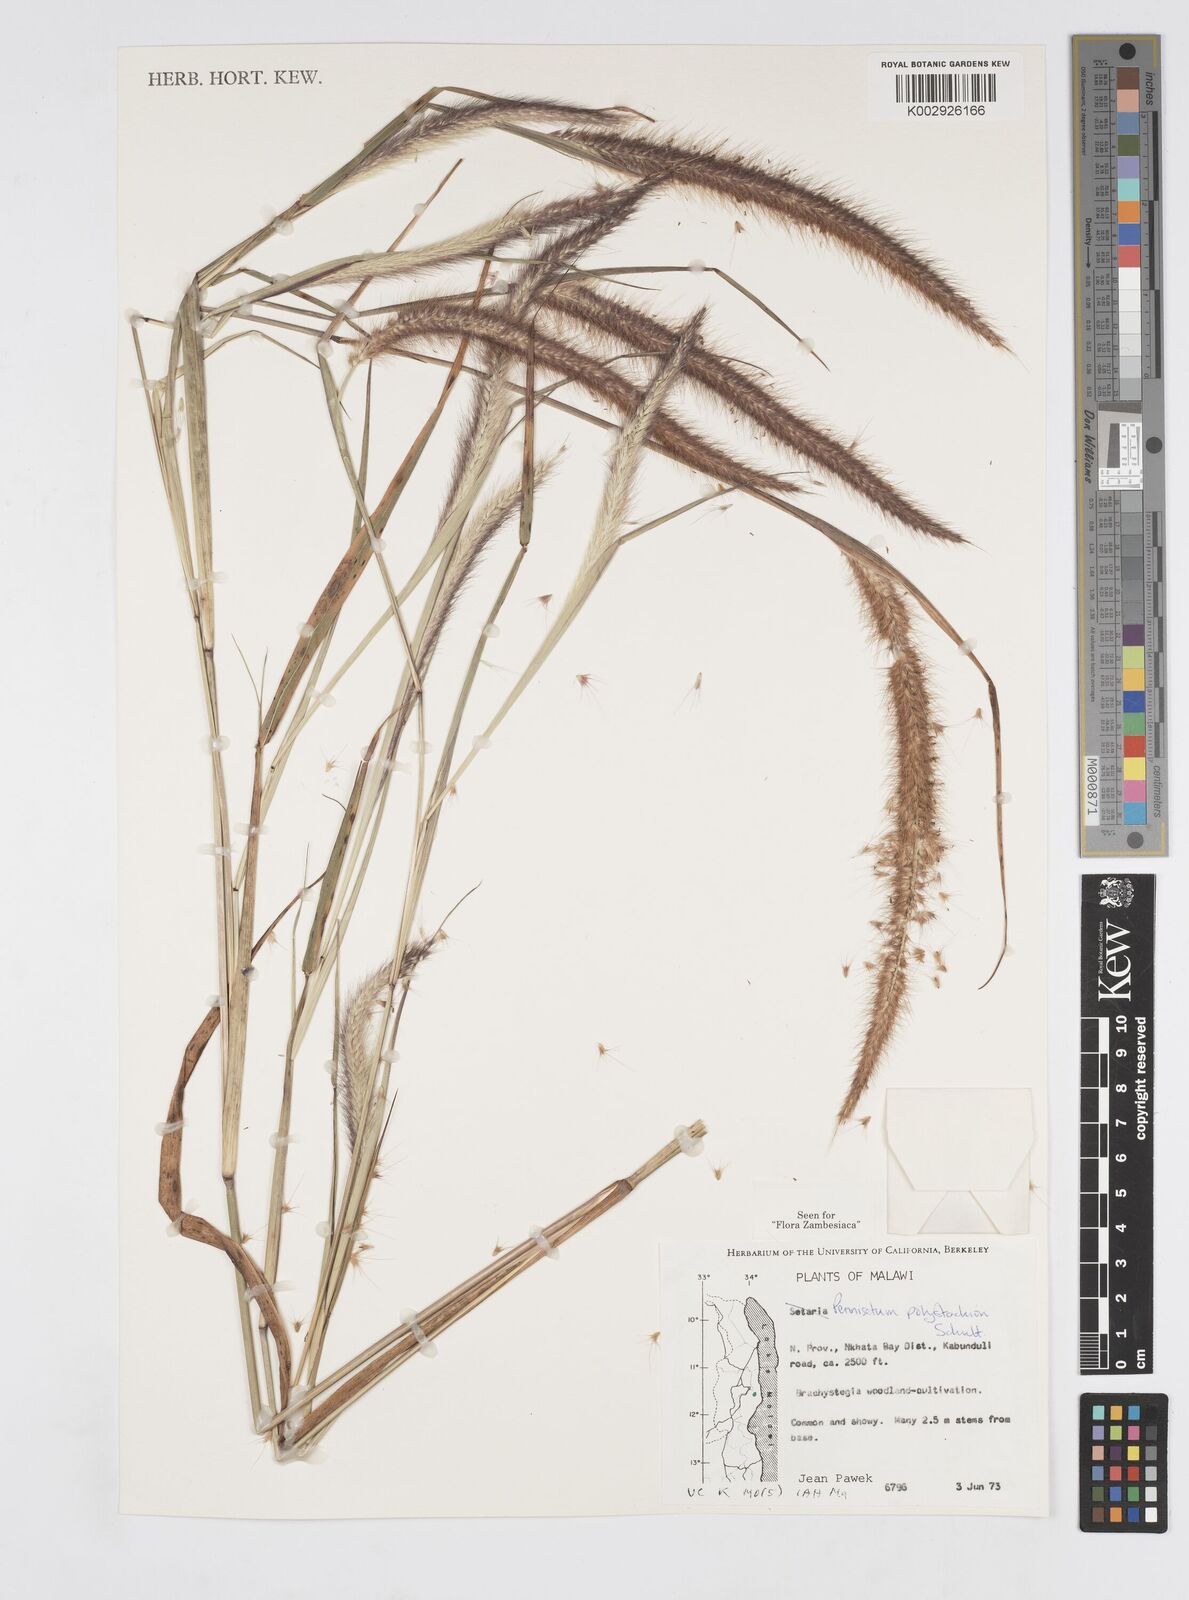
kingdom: Plantae
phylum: Tracheophyta
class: Liliopsida
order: Poales
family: Poaceae
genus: Setaria
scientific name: Setaria parviflora
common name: Knotroot bristle-grass
